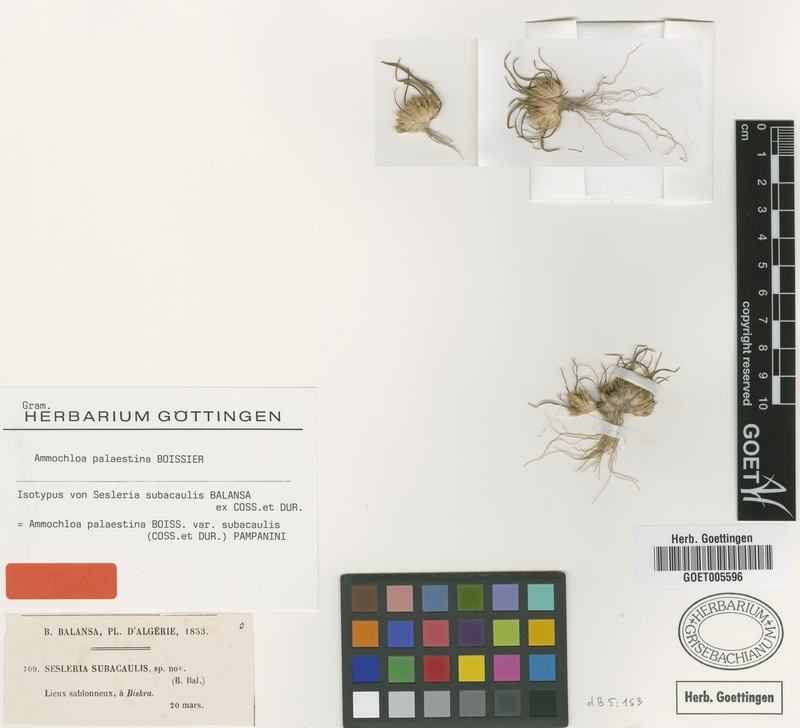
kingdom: Plantae
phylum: Tracheophyta
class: Liliopsida
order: Poales
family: Poaceae
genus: Ammochloa
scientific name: Ammochloa palaestina
